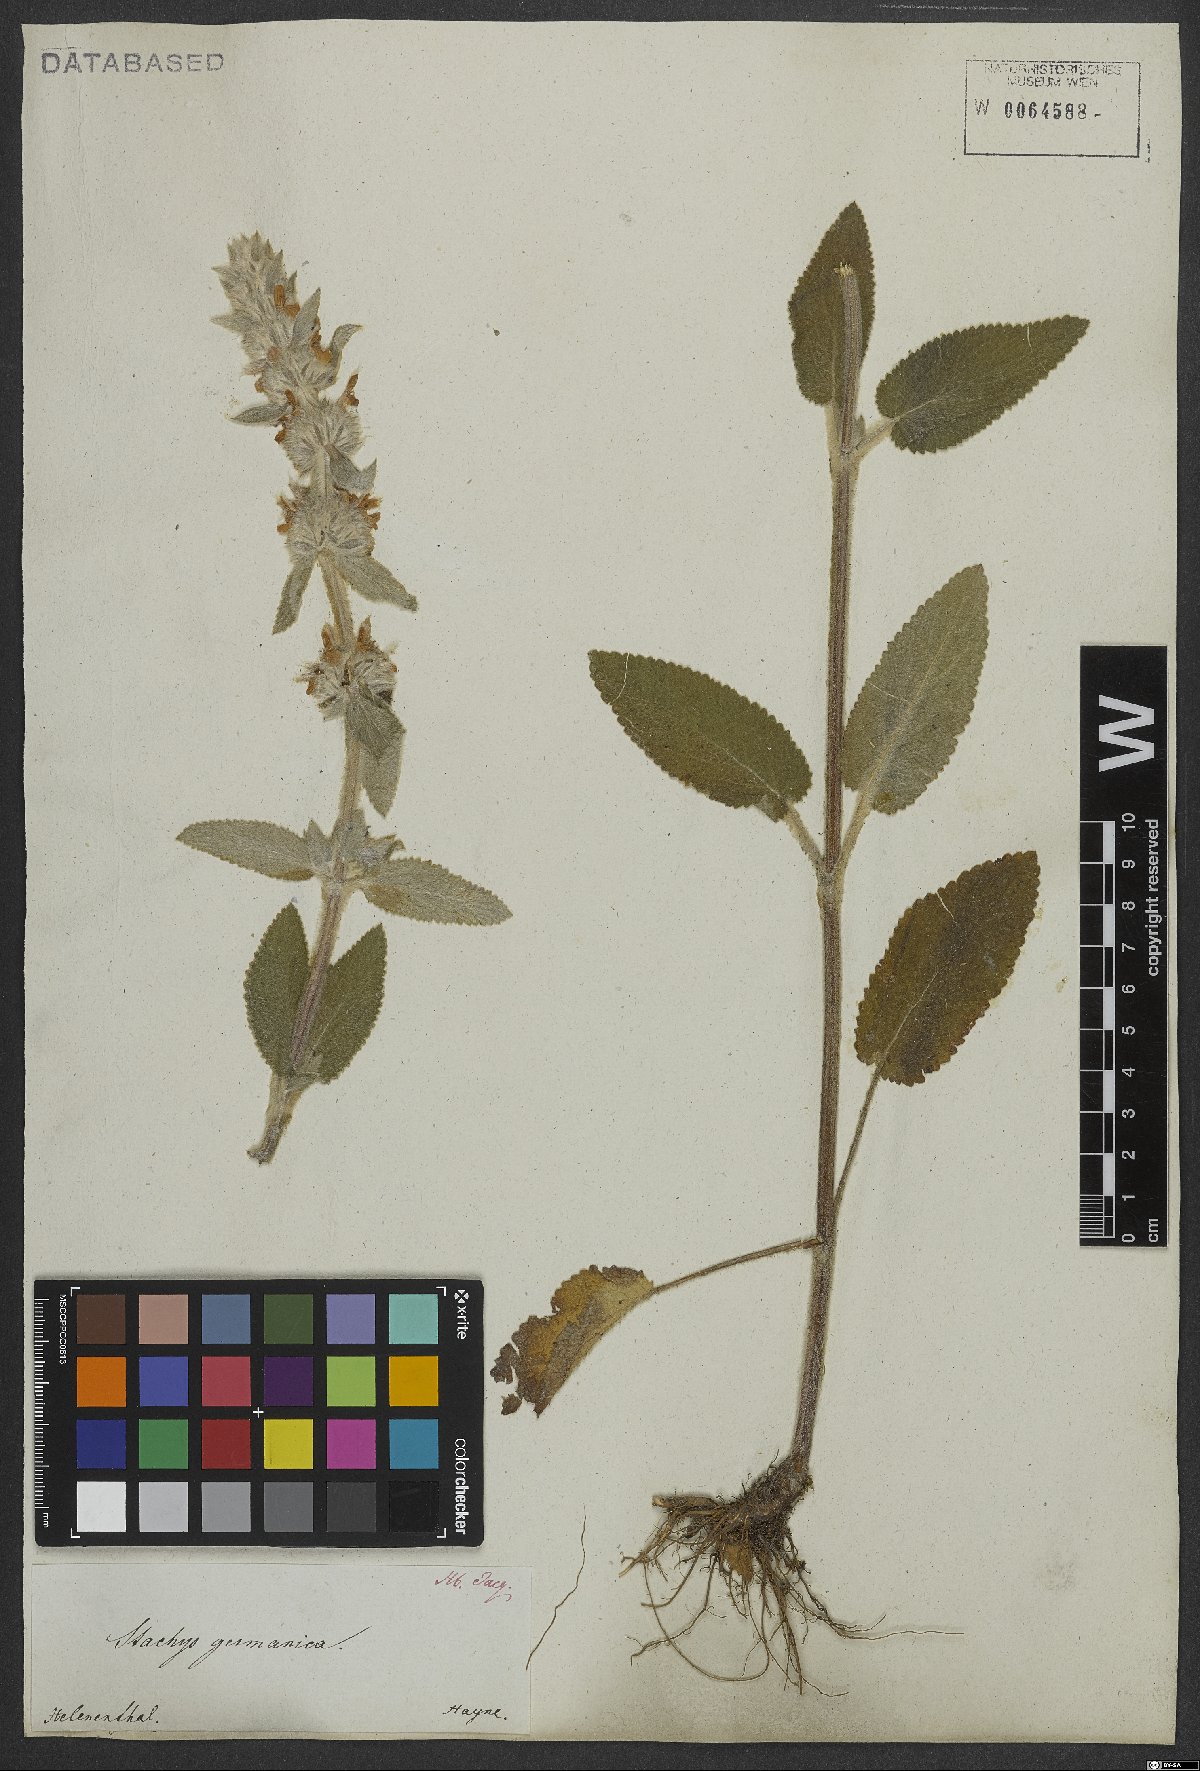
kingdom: Plantae
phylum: Tracheophyta
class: Magnoliopsida
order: Lamiales
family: Lamiaceae
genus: Stachys
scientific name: Stachys germanica
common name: Downy woundwort
